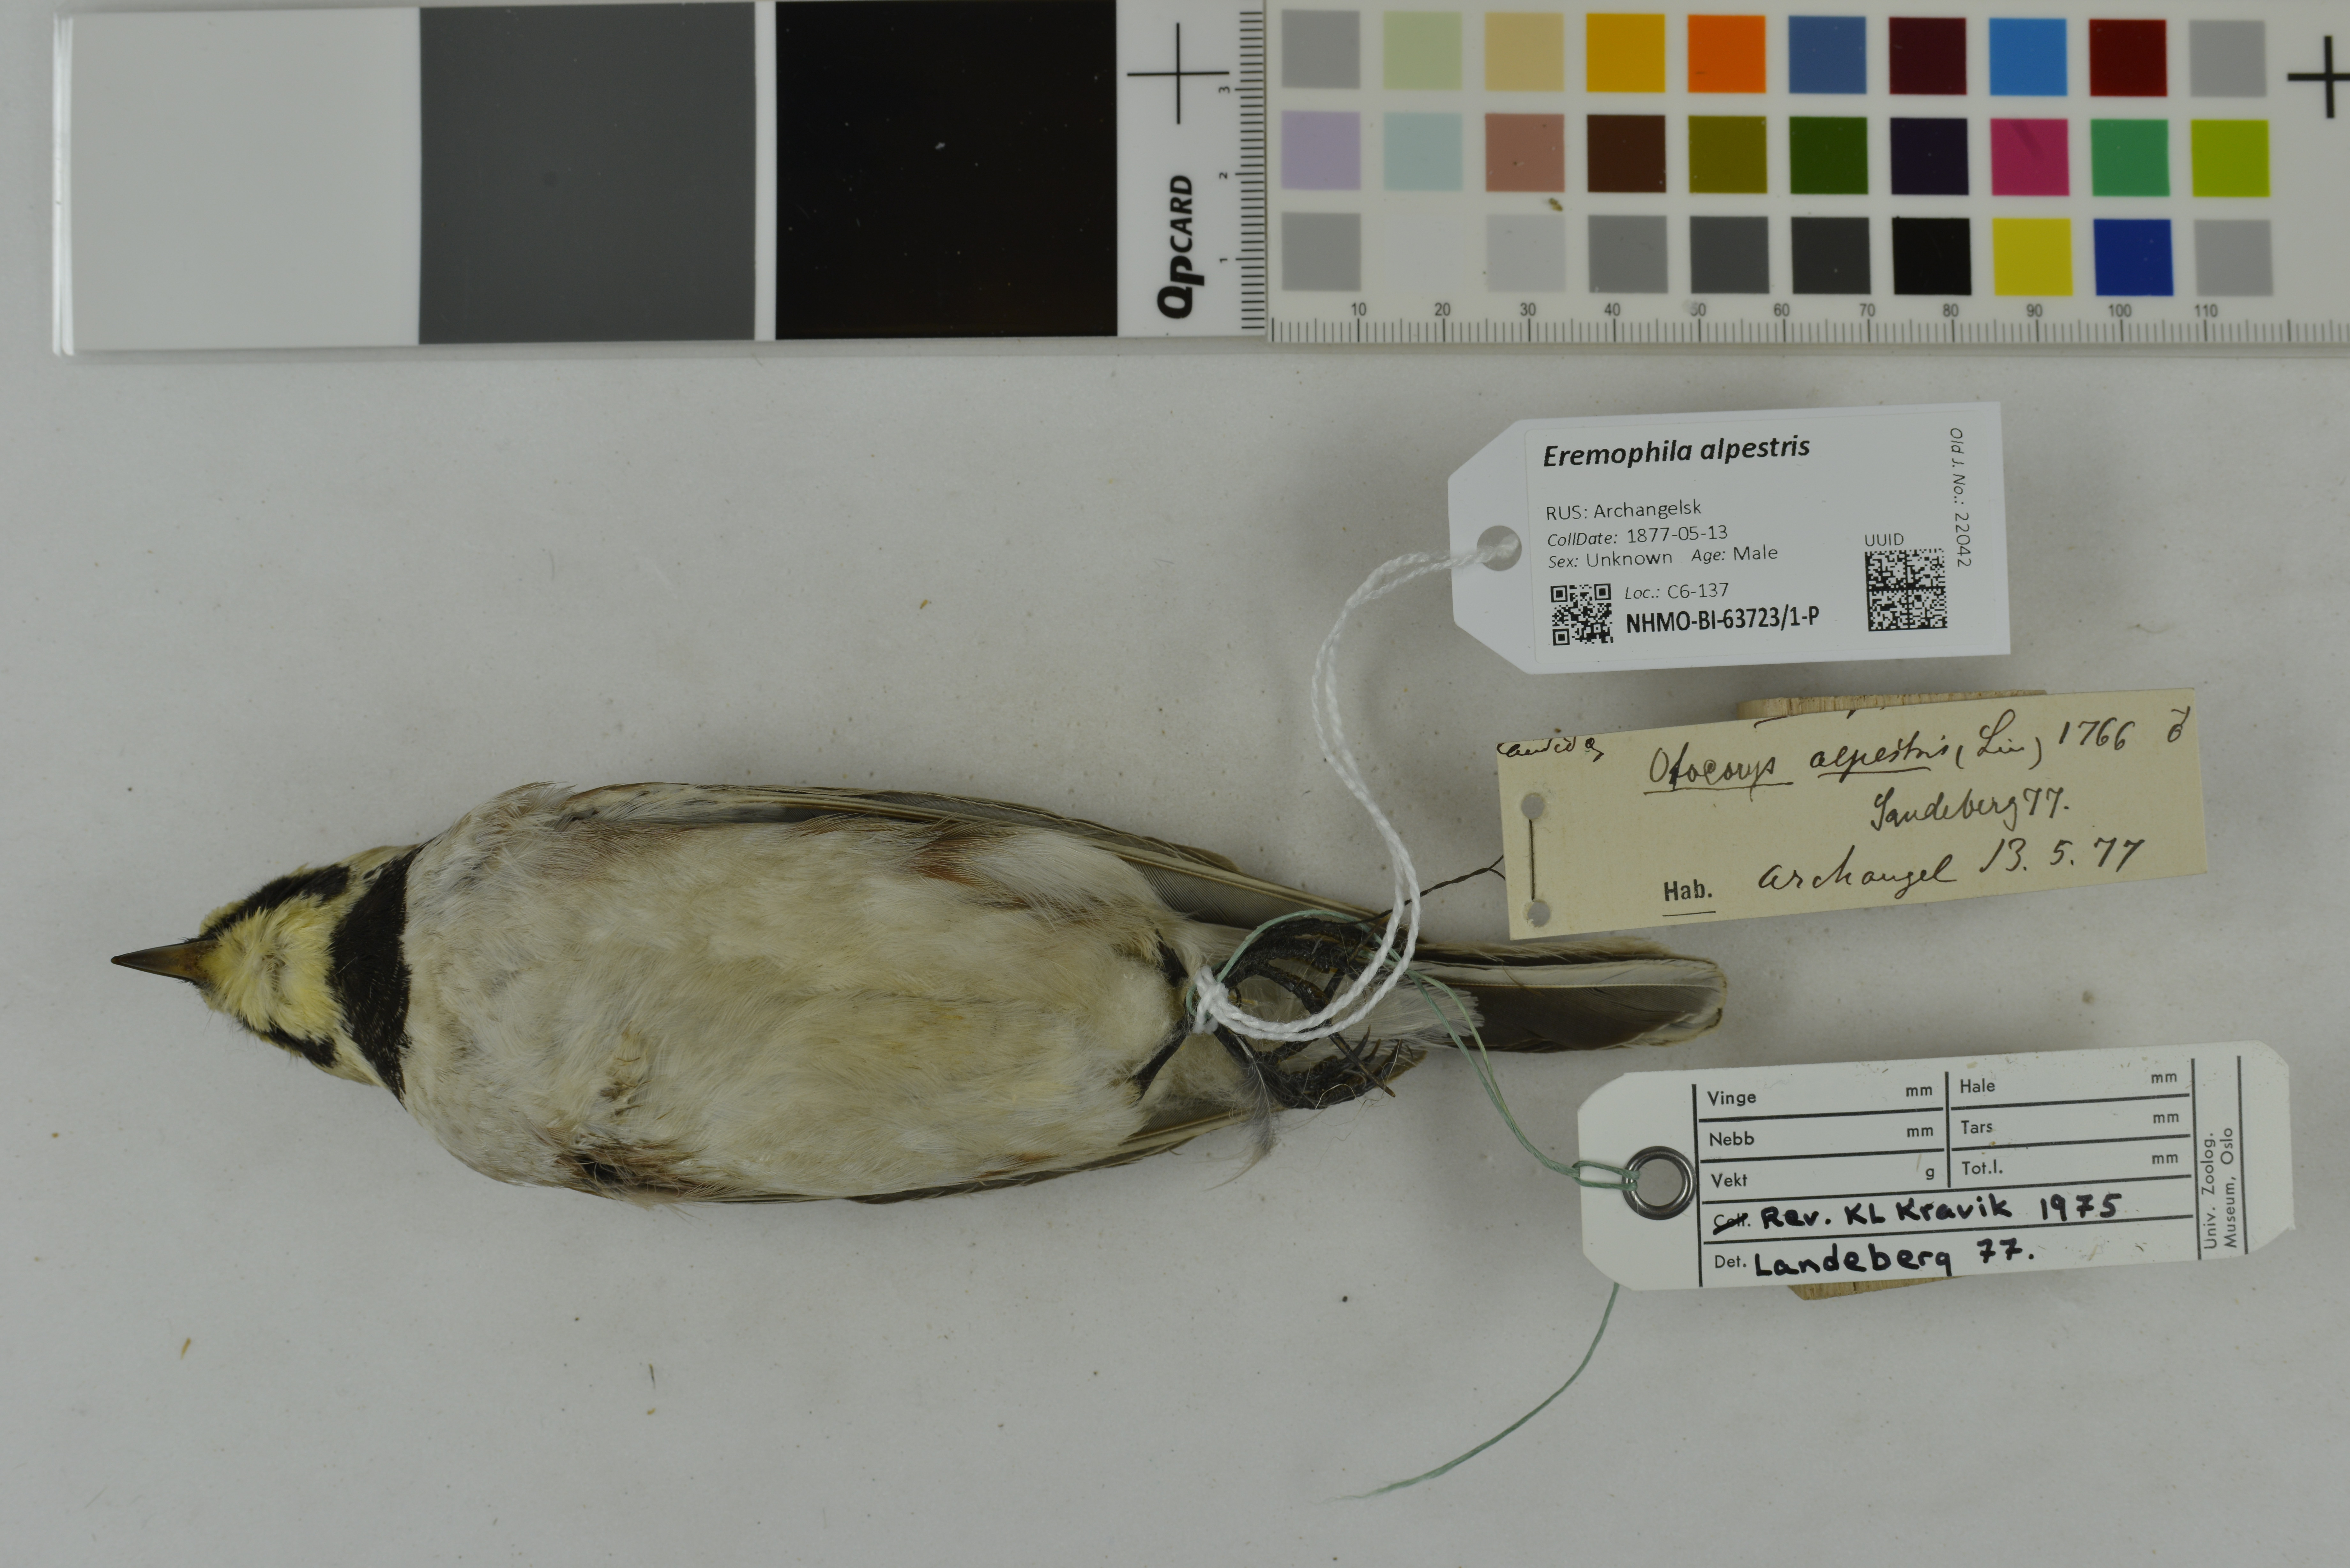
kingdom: Animalia
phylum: Chordata
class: Aves
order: Passeriformes
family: Alaudidae
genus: Eremophila
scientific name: Eremophila alpestris
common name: Horned lark
